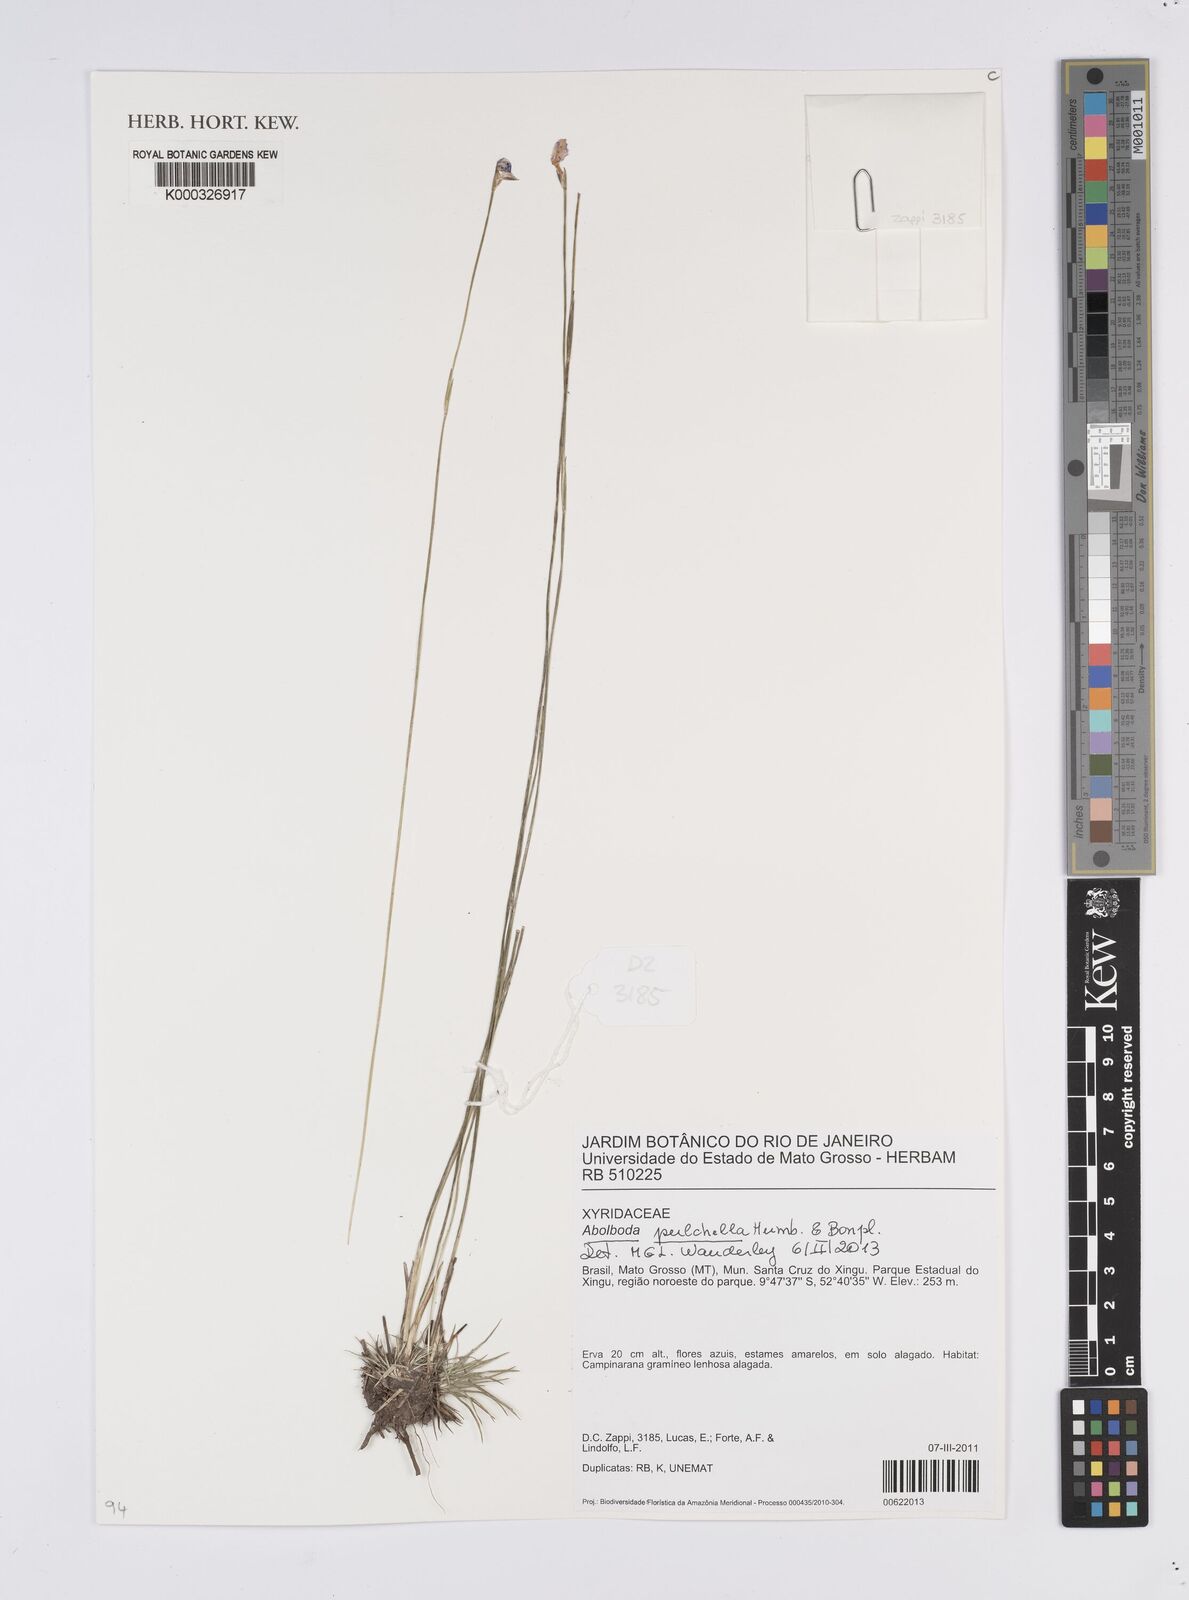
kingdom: Plantae
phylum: Tracheophyta
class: Liliopsida
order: Poales
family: Xyridaceae
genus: Abolboda
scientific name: Abolboda pulchella
